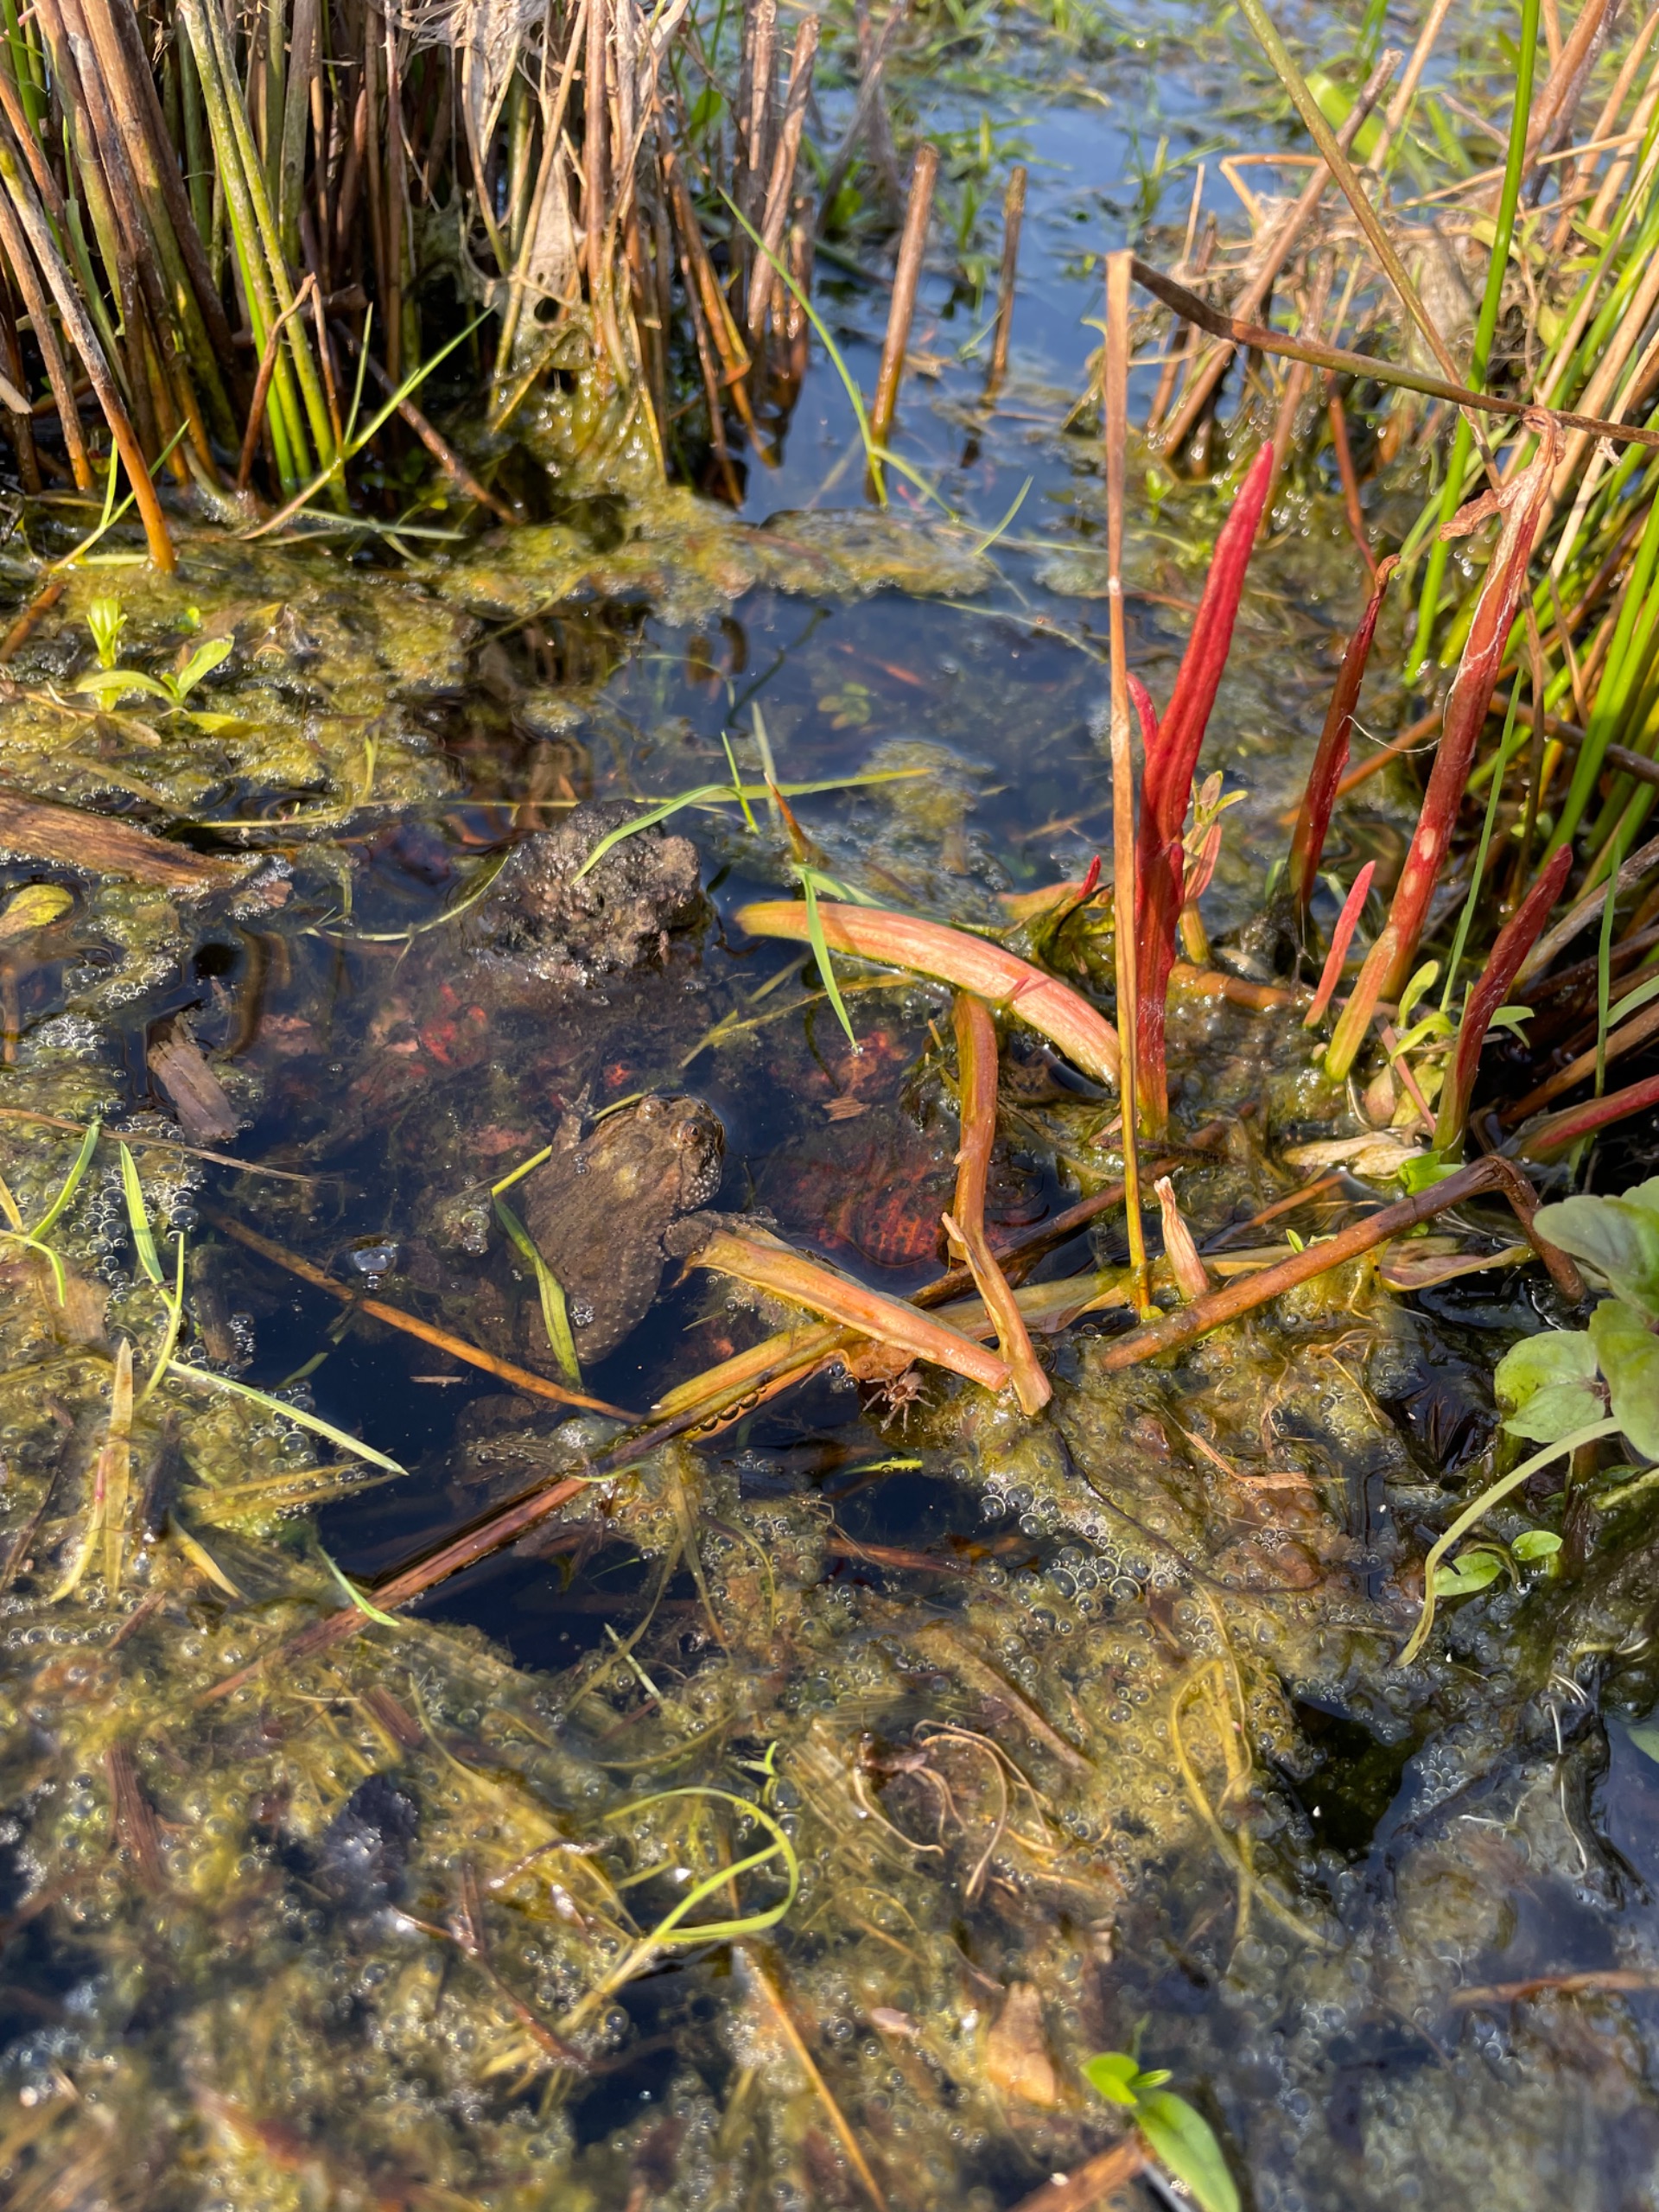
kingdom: Animalia
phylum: Chordata
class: Amphibia
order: Anura
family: Bombinatoridae
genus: Bombina
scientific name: Bombina bombina
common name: Klokkefrø
